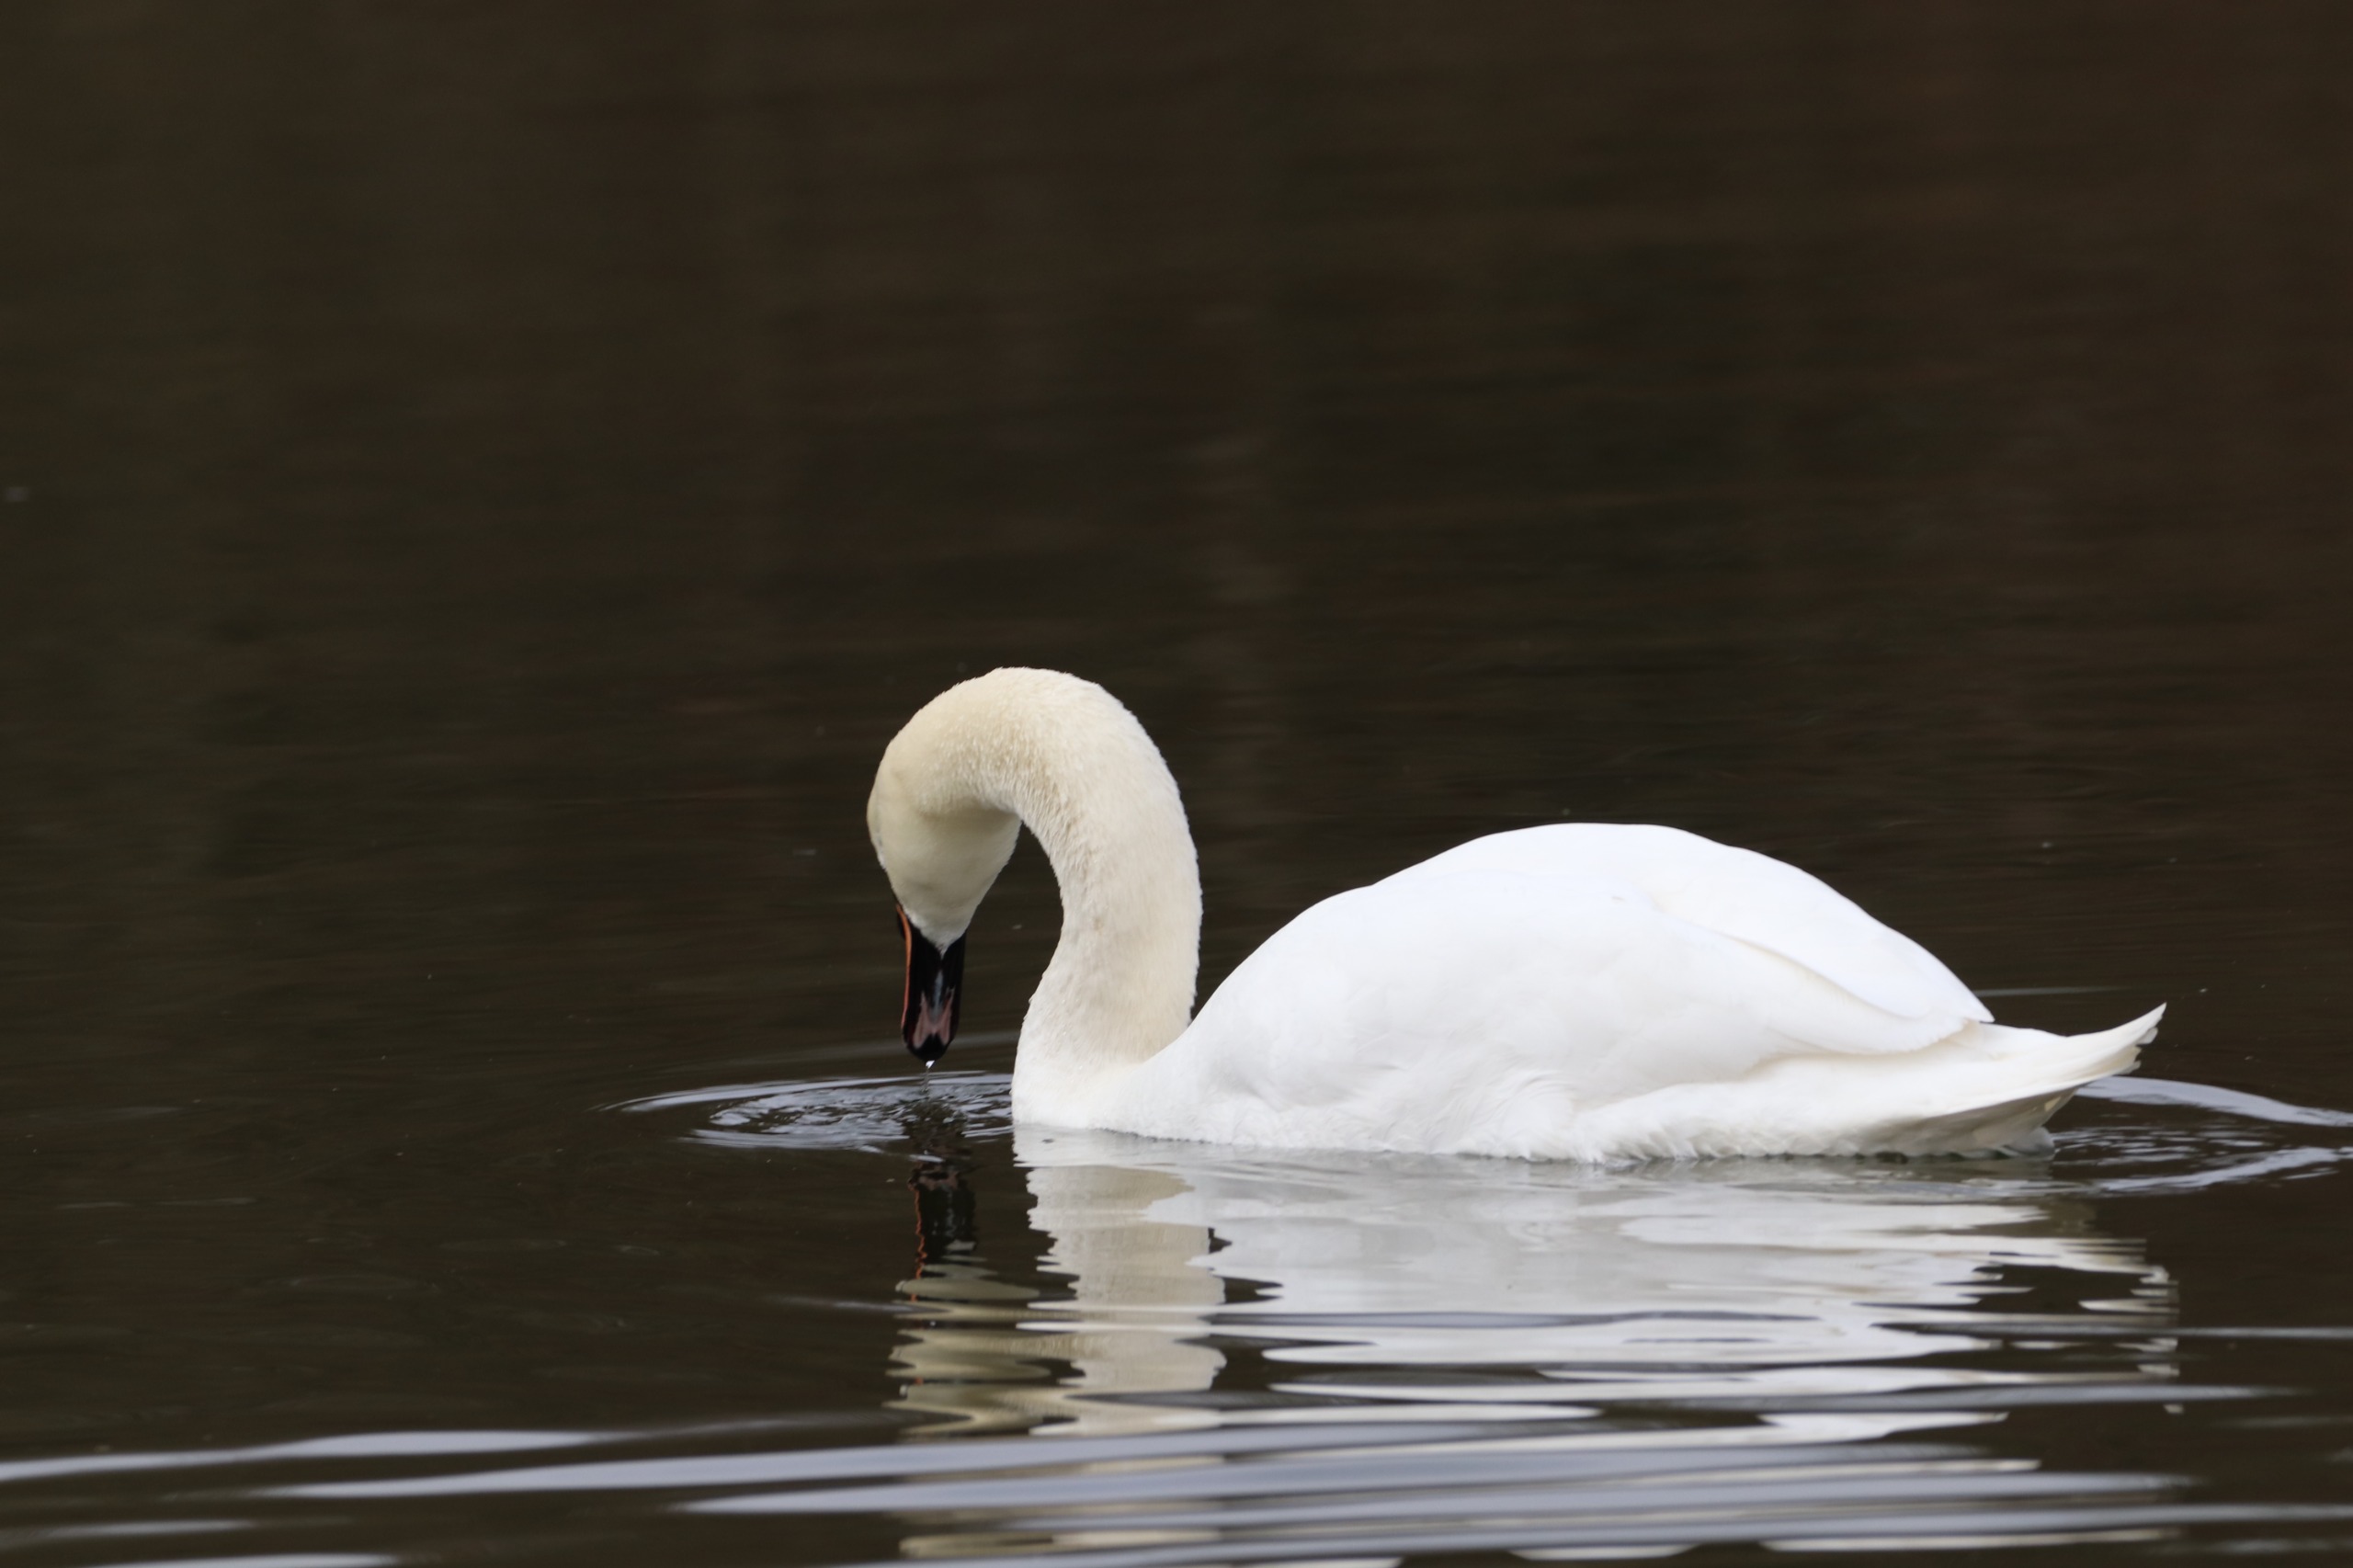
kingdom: Animalia
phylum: Chordata
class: Aves
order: Anseriformes
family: Anatidae
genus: Cygnus
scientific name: Cygnus olor
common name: Knopsvane
